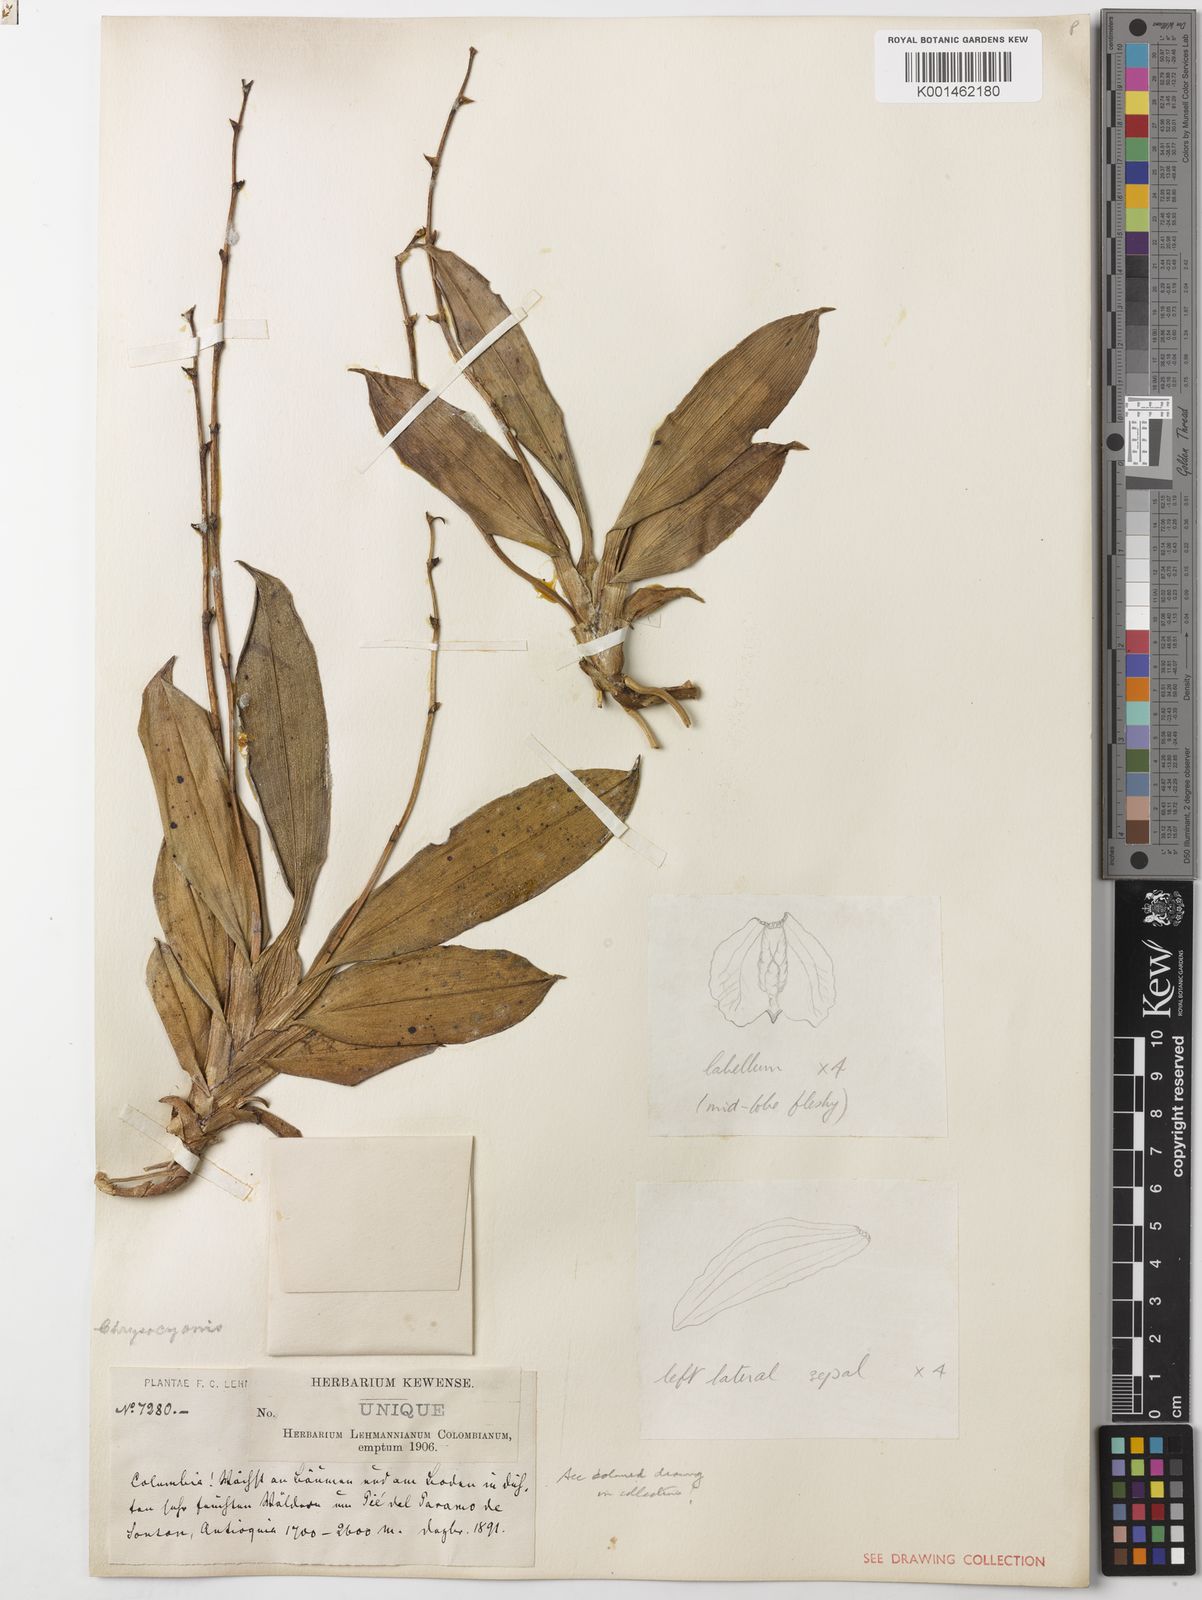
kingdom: Plantae
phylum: Tracheophyta
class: Liliopsida
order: Asparagales
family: Orchidaceae
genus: Oliveriana
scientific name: Oliveriana egregia
